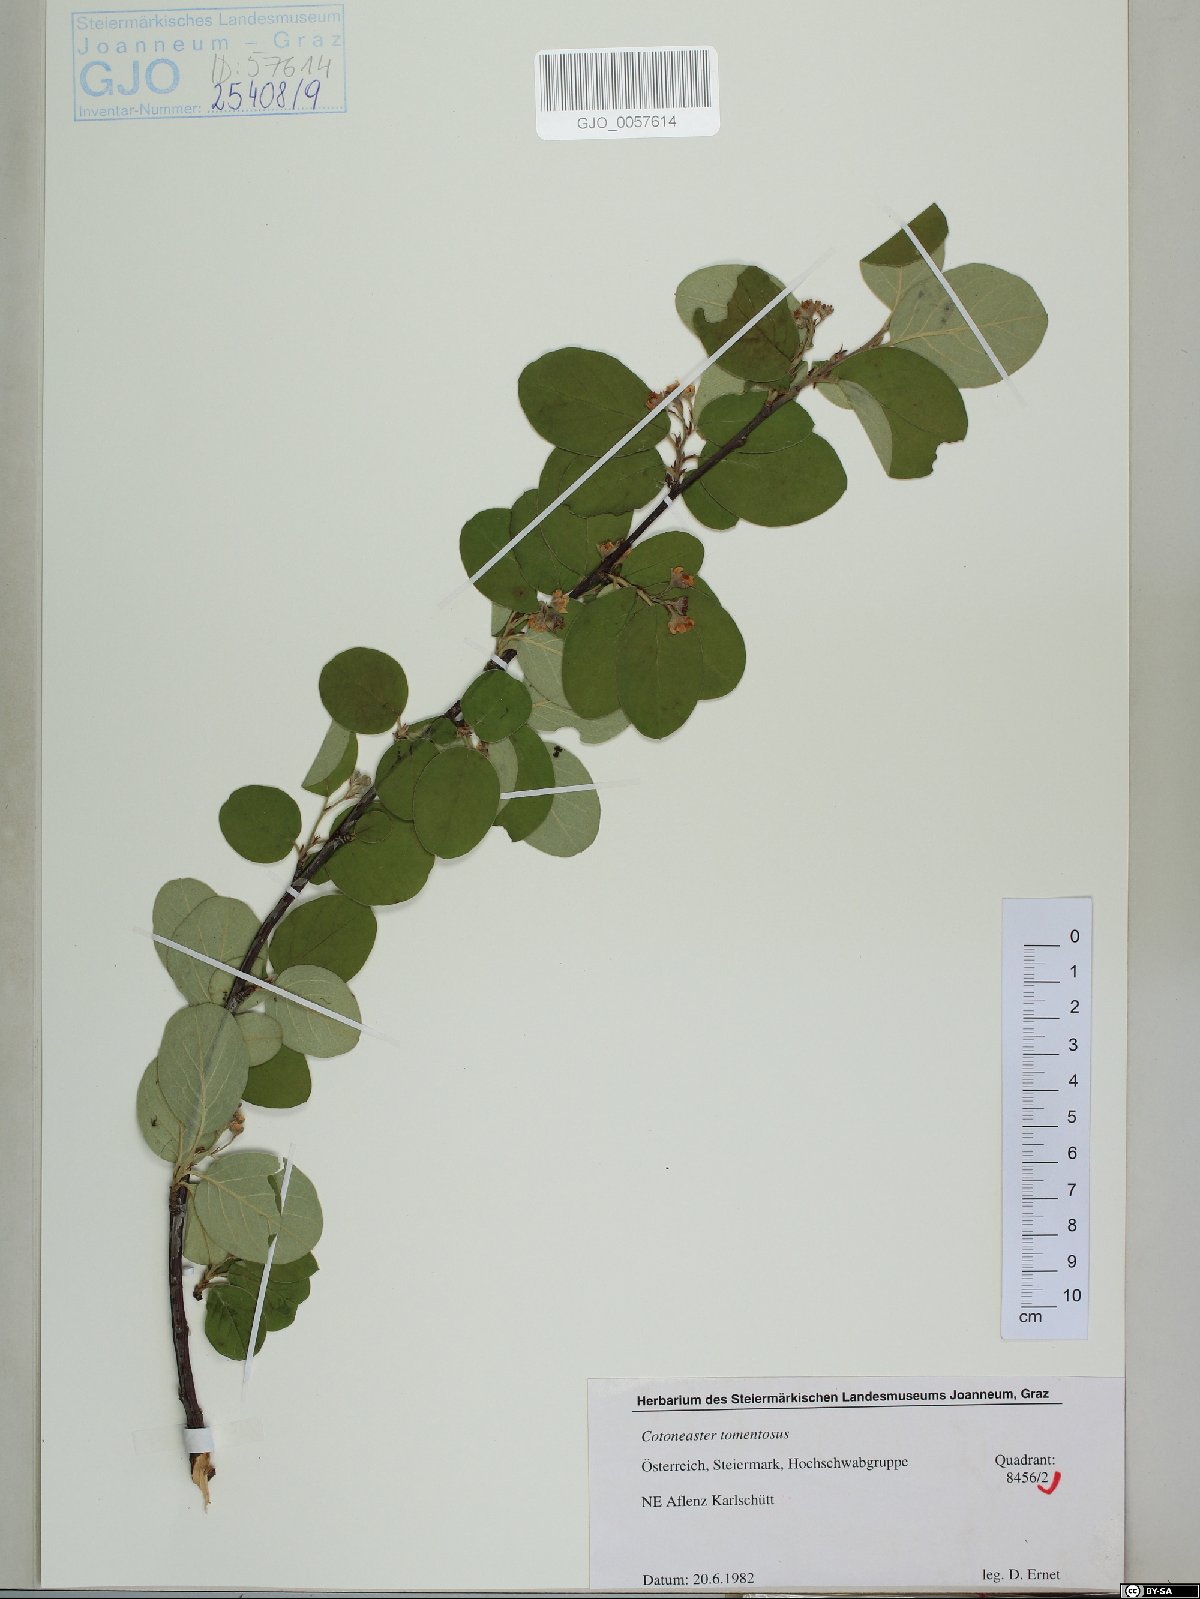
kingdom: Plantae
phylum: Tracheophyta
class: Magnoliopsida
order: Rosales
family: Rosaceae
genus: Cotoneaster
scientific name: Cotoneaster tomentosus
